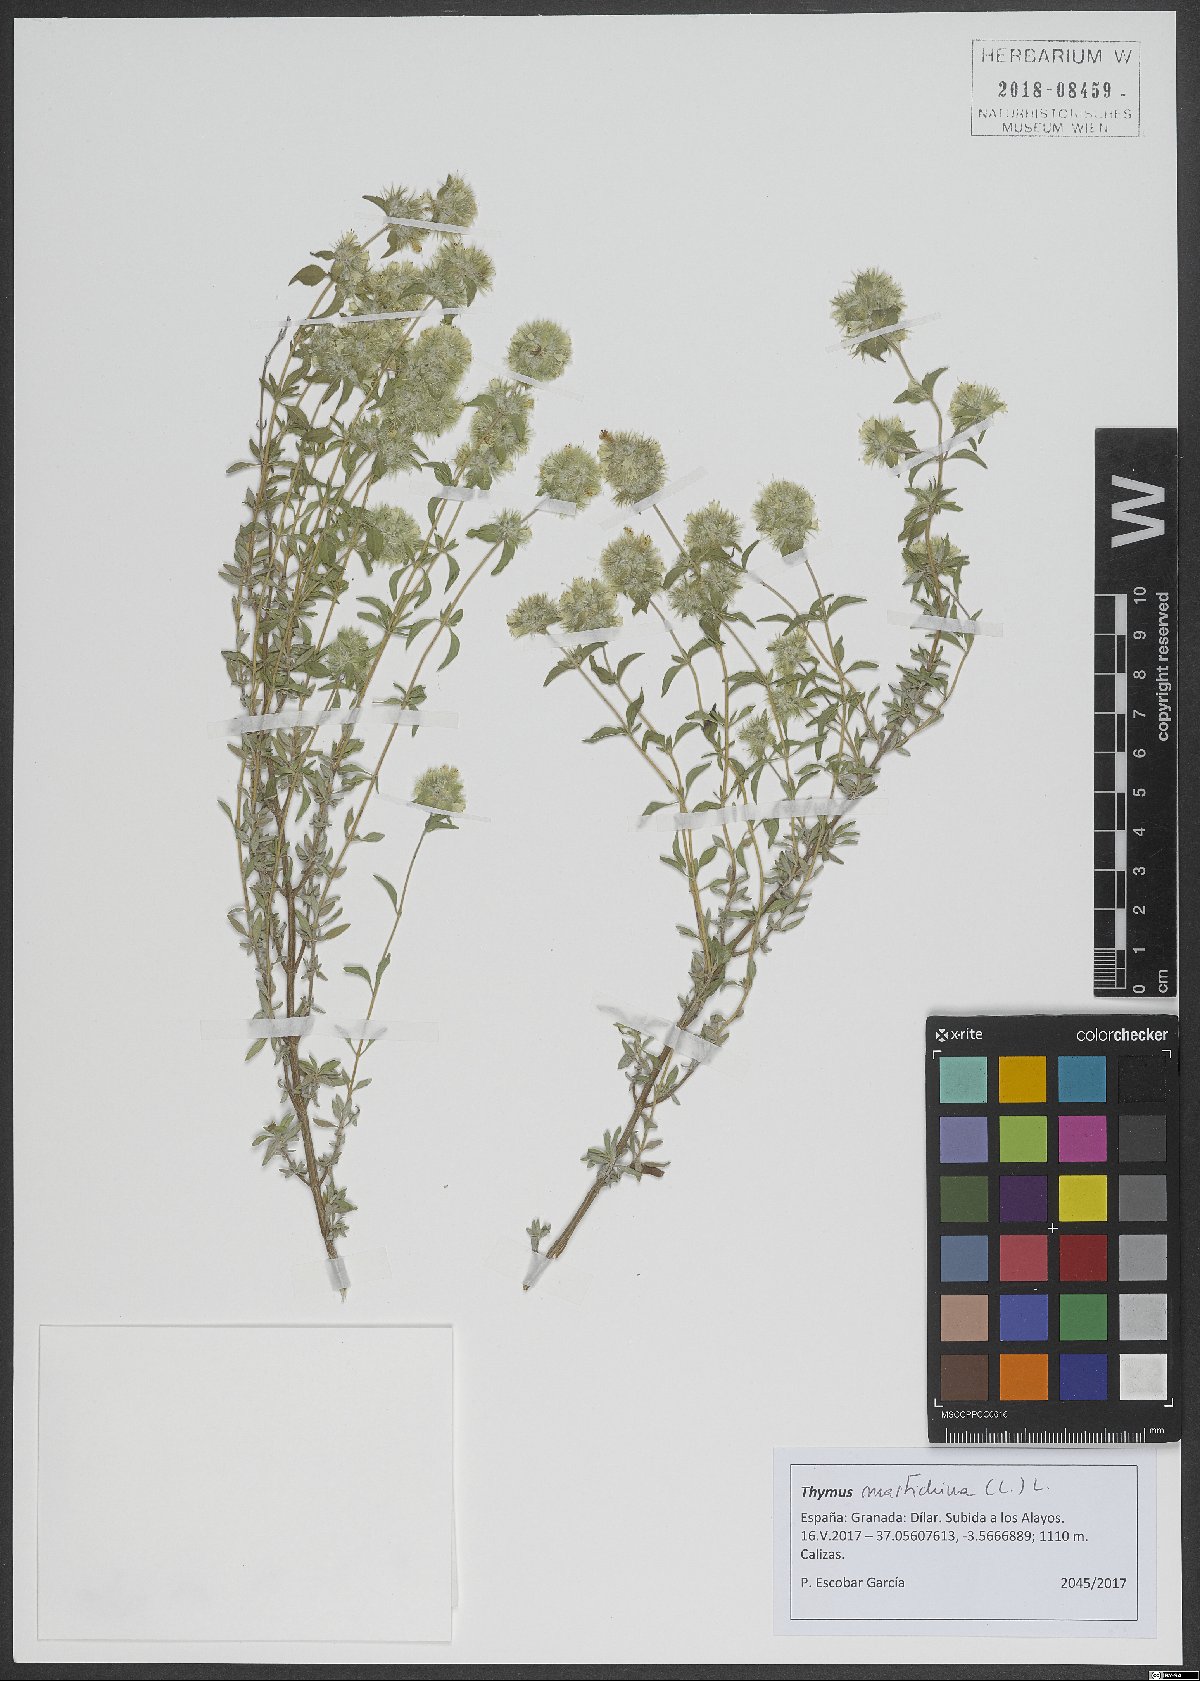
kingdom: Plantae
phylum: Tracheophyta
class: Magnoliopsida
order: Lamiales
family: Lamiaceae
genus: Thymus
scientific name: Thymus mastichina
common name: Mastic thyme
